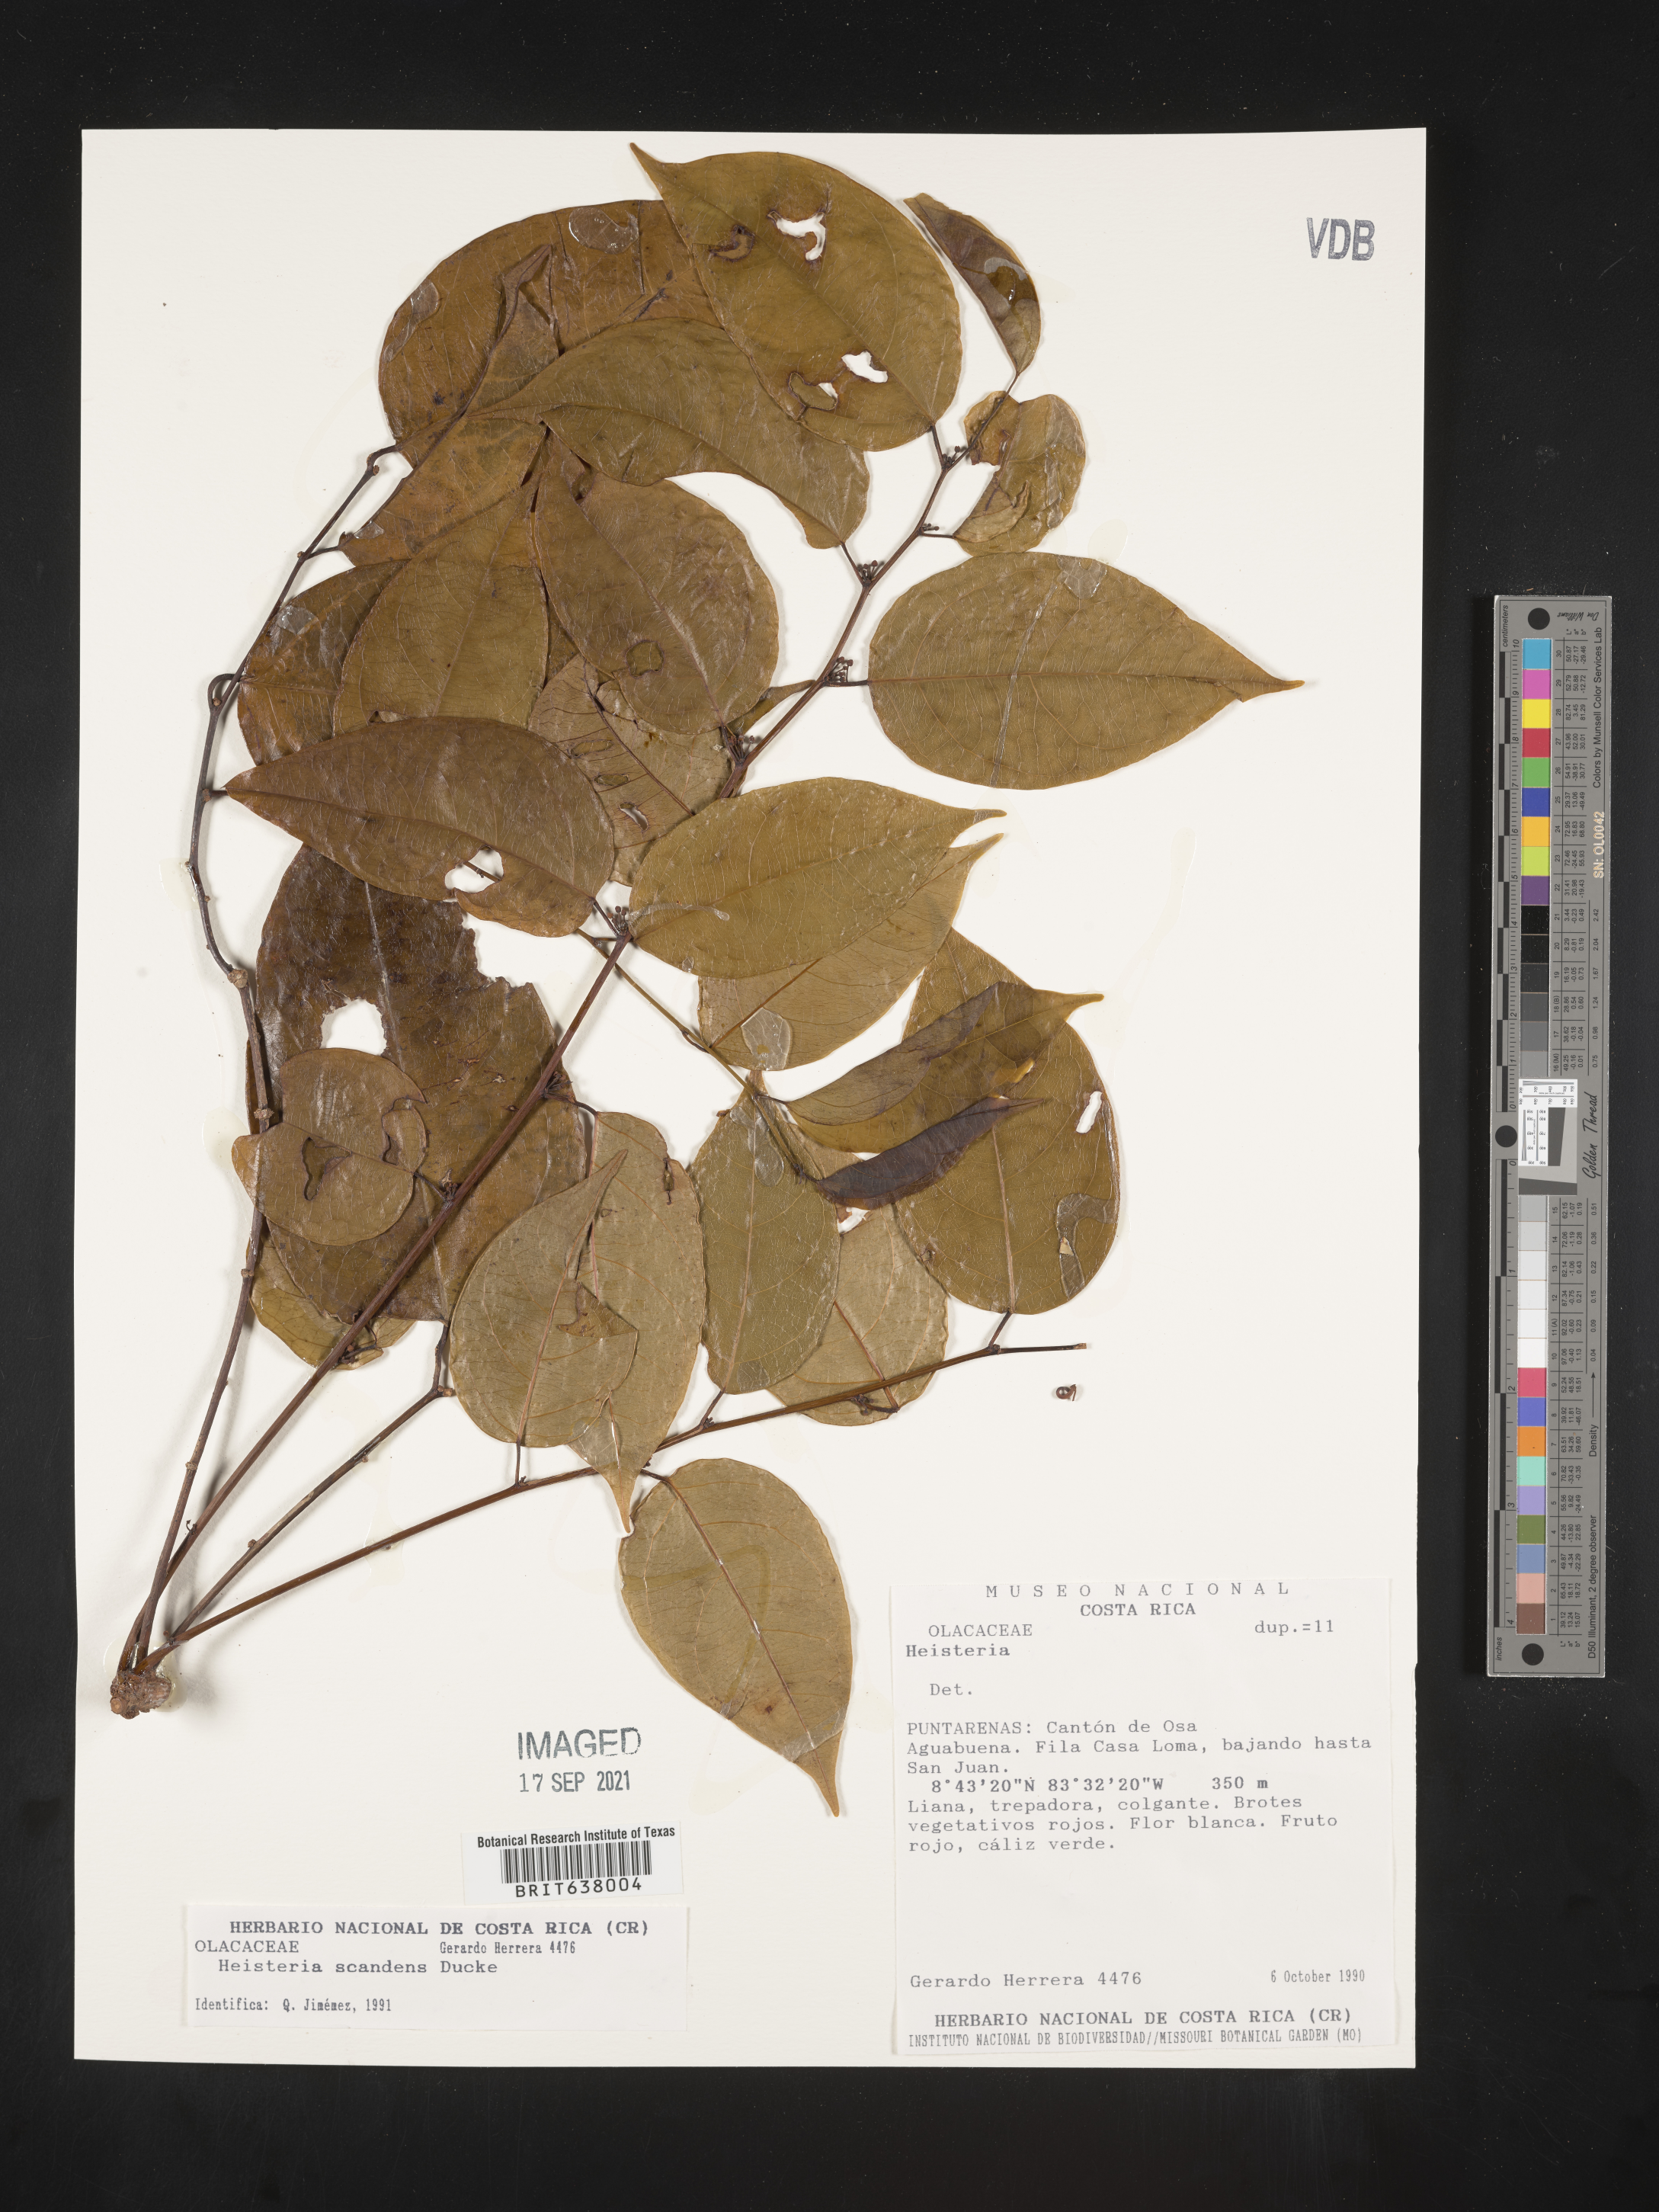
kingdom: Plantae
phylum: Tracheophyta
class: Magnoliopsida
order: Santalales
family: Erythropalaceae
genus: Heisteria
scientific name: Heisteria
